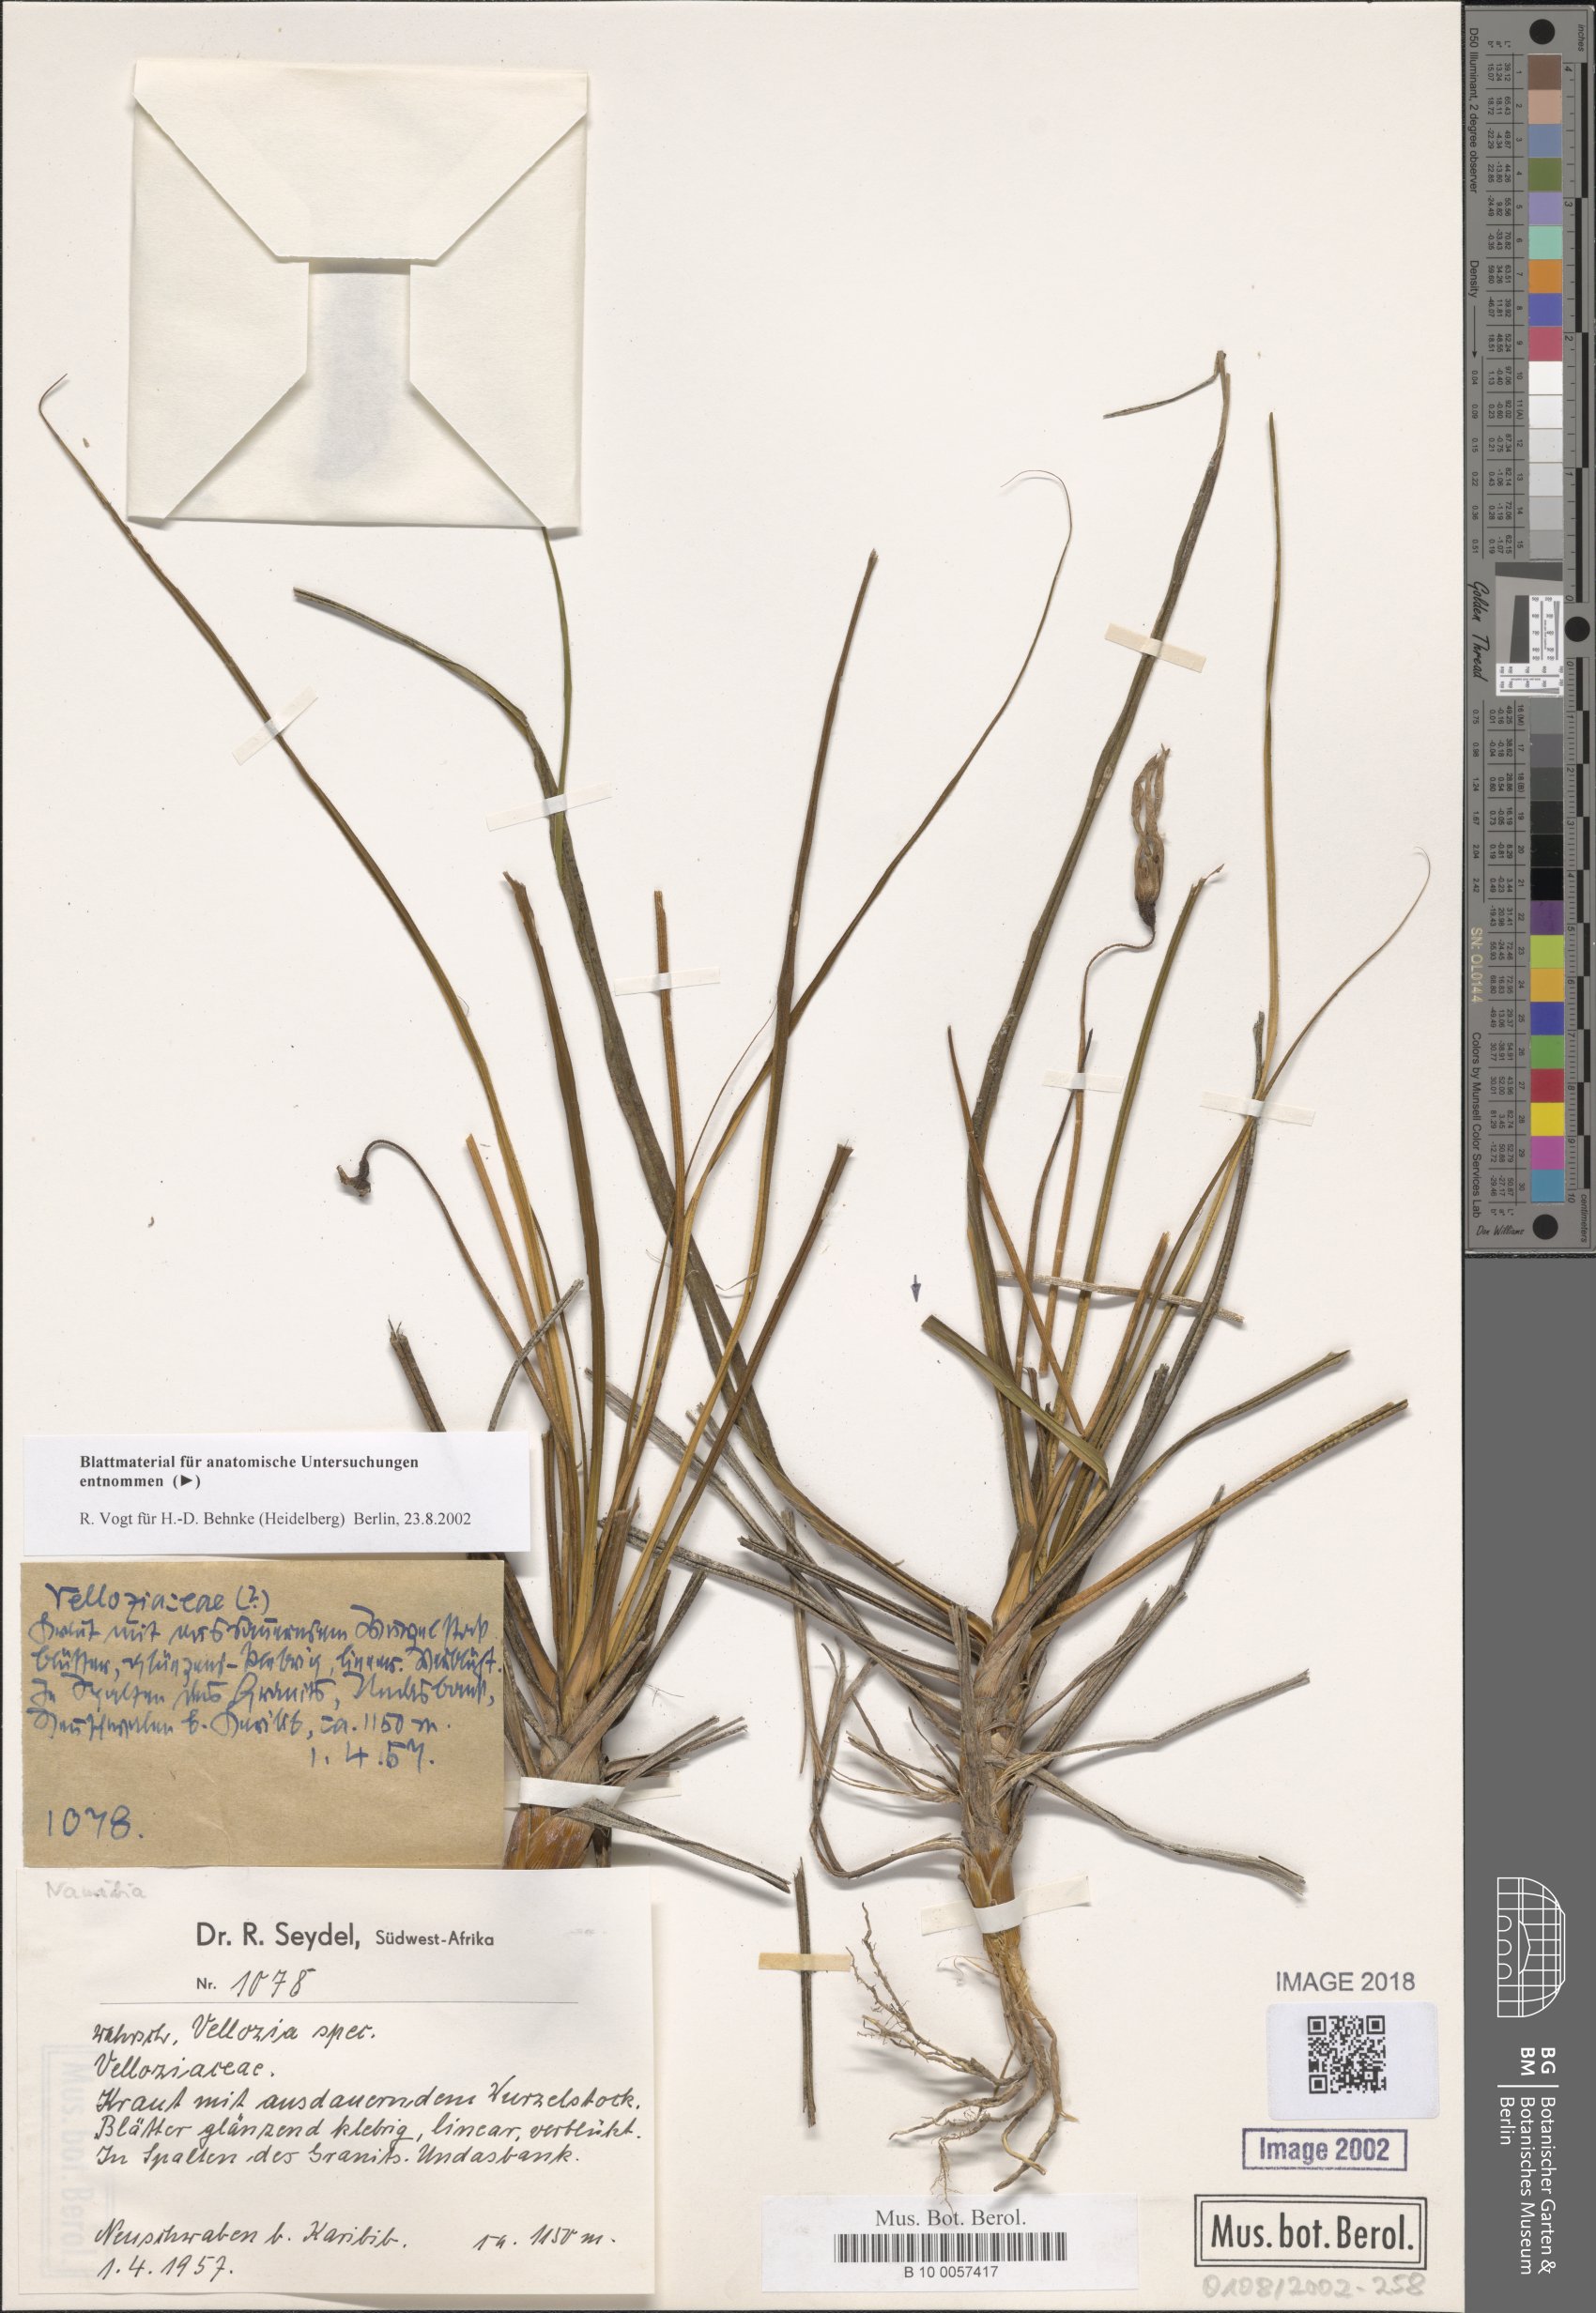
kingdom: Plantae
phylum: Tracheophyta
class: Liliopsida
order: Pandanales
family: Velloziaceae
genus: Xerophyta
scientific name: Xerophyta
